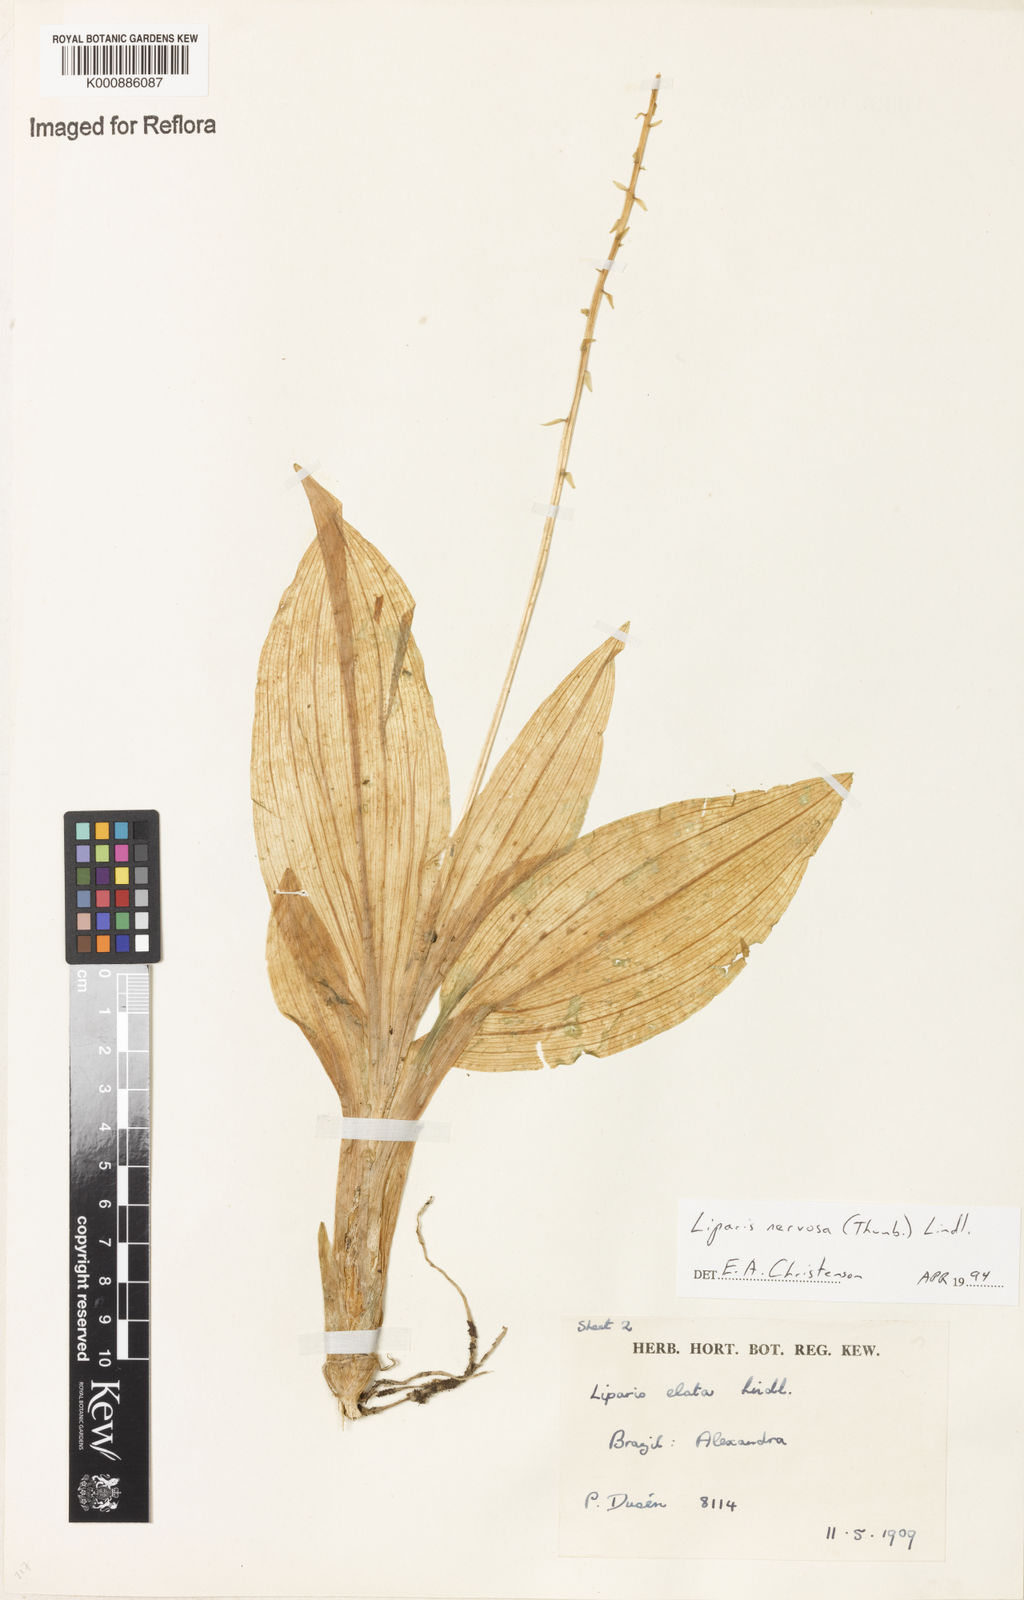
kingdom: Plantae
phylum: Tracheophyta
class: Liliopsida
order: Asparagales
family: Orchidaceae
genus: Liparis
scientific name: Liparis nervosa
